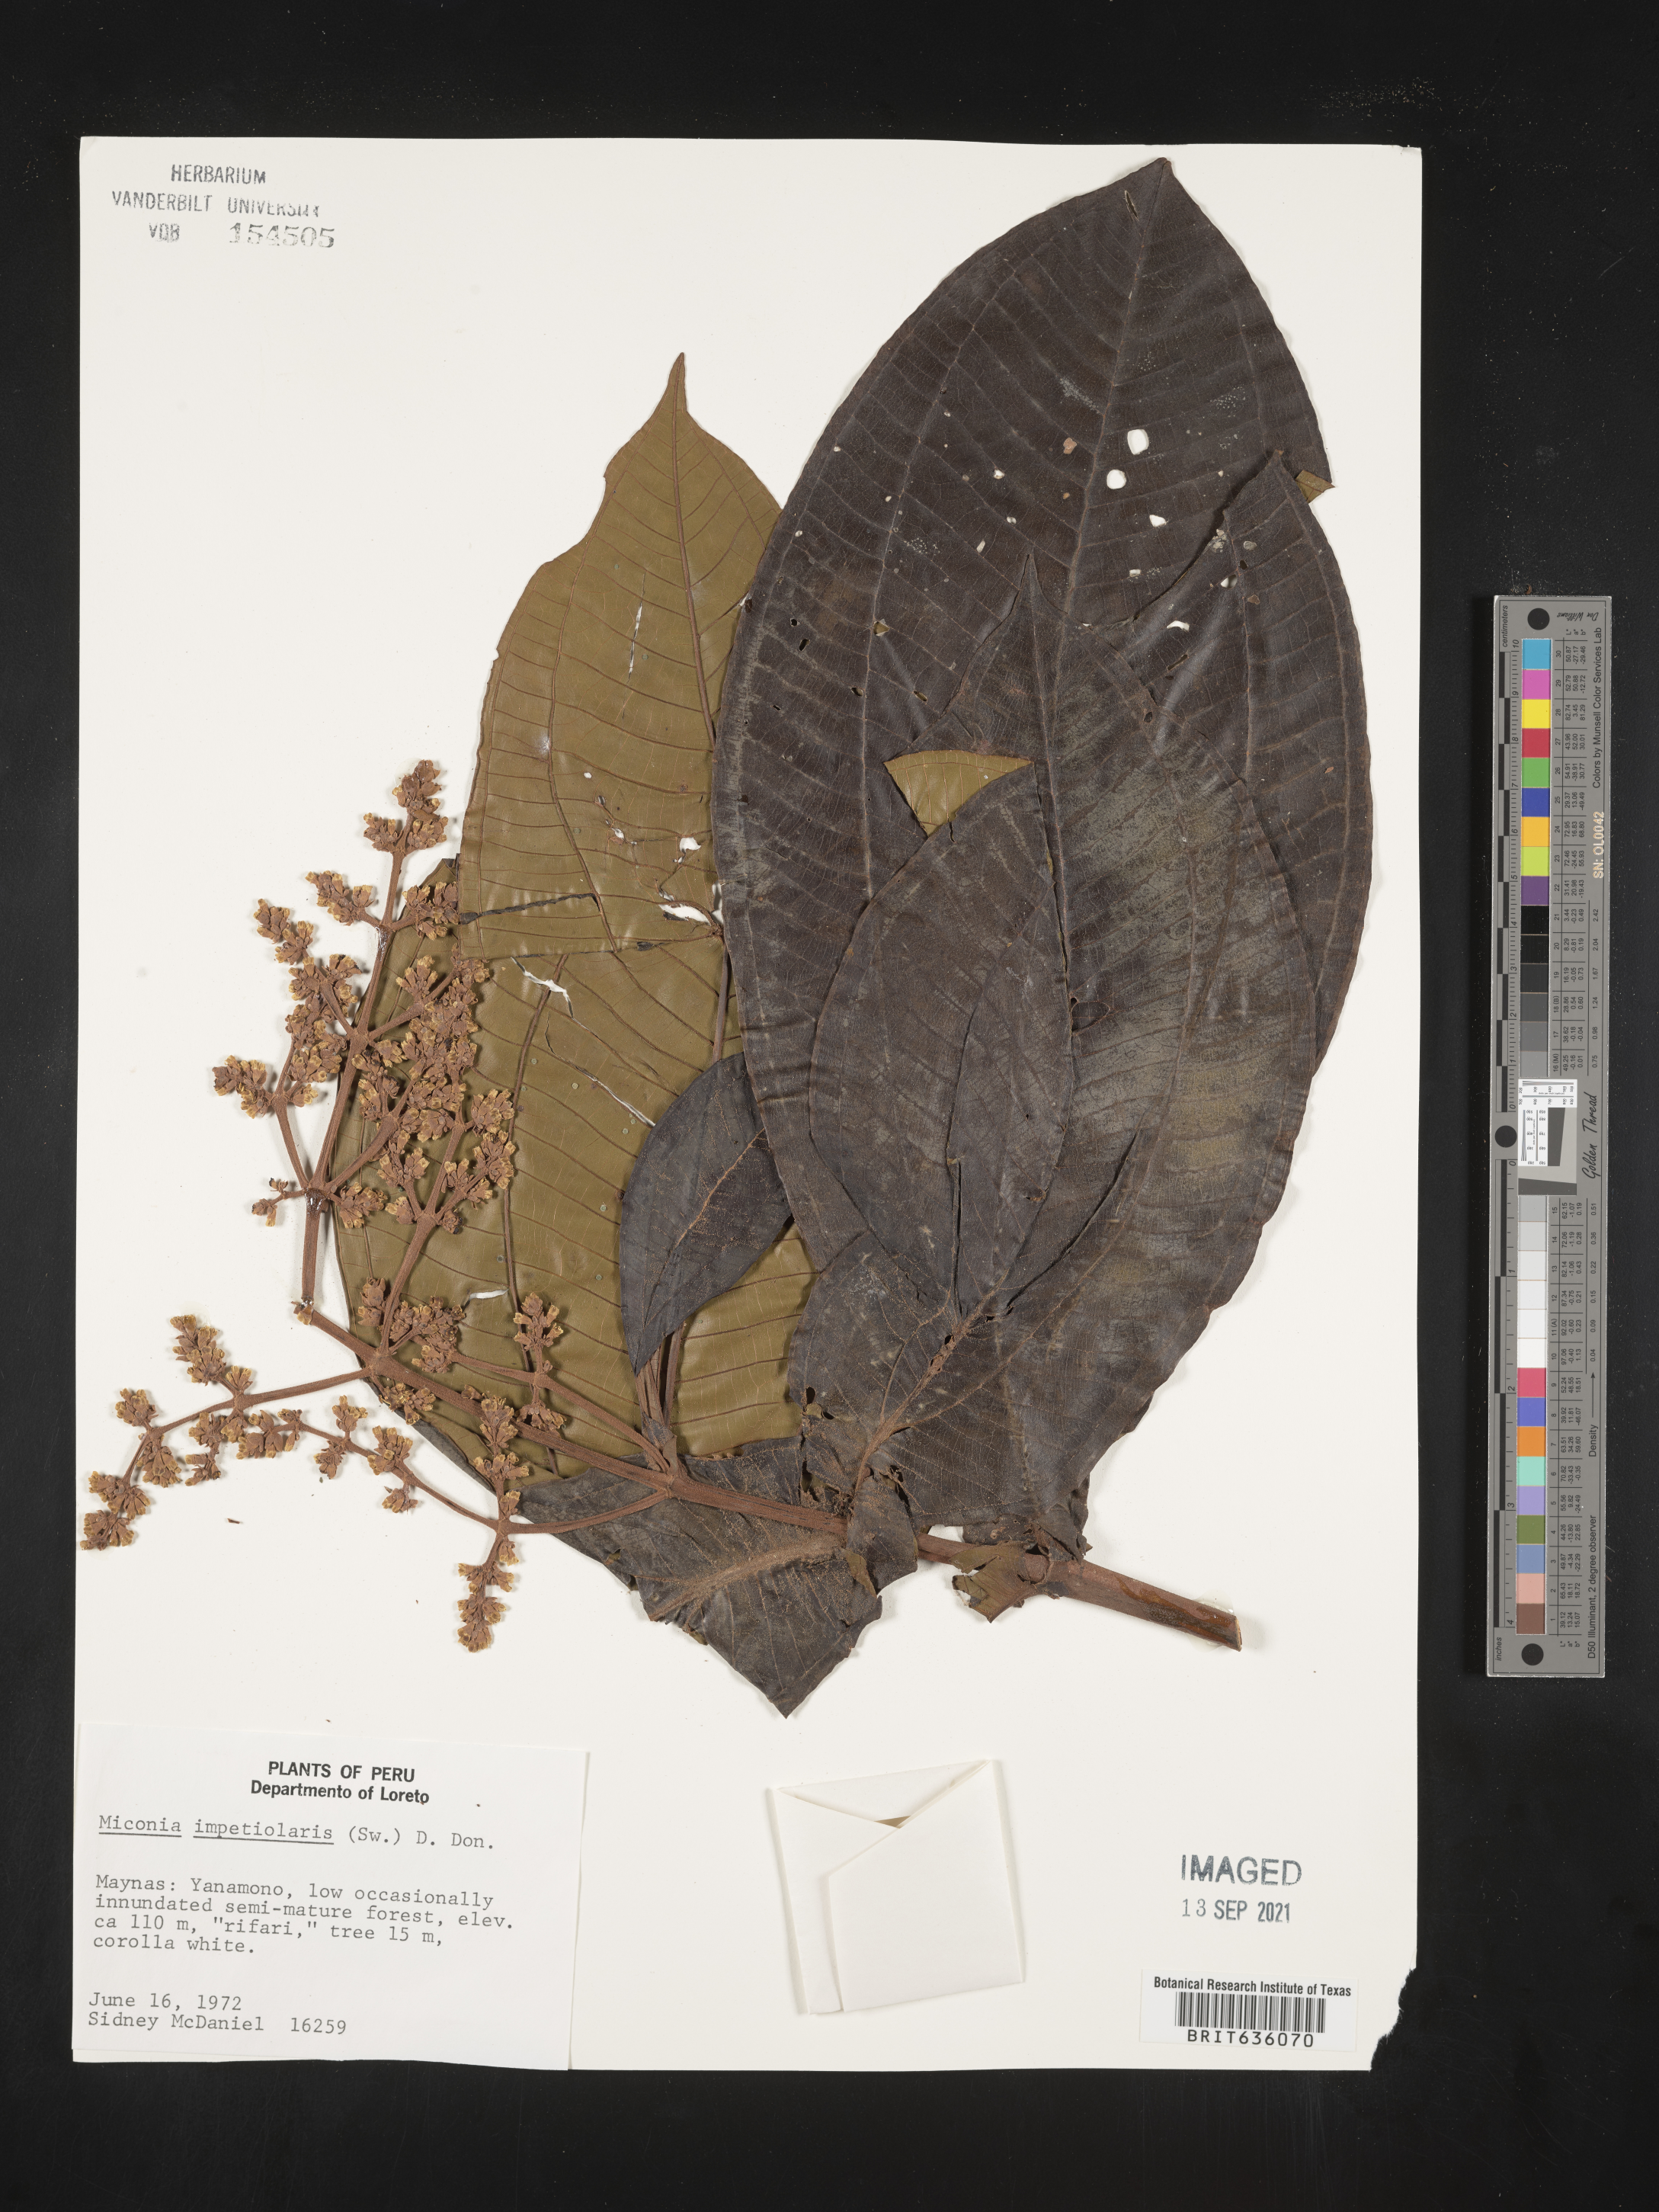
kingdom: Plantae
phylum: Tracheophyta
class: Magnoliopsida
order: Myrtales
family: Melastomataceae
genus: Miconia
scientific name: Miconia
